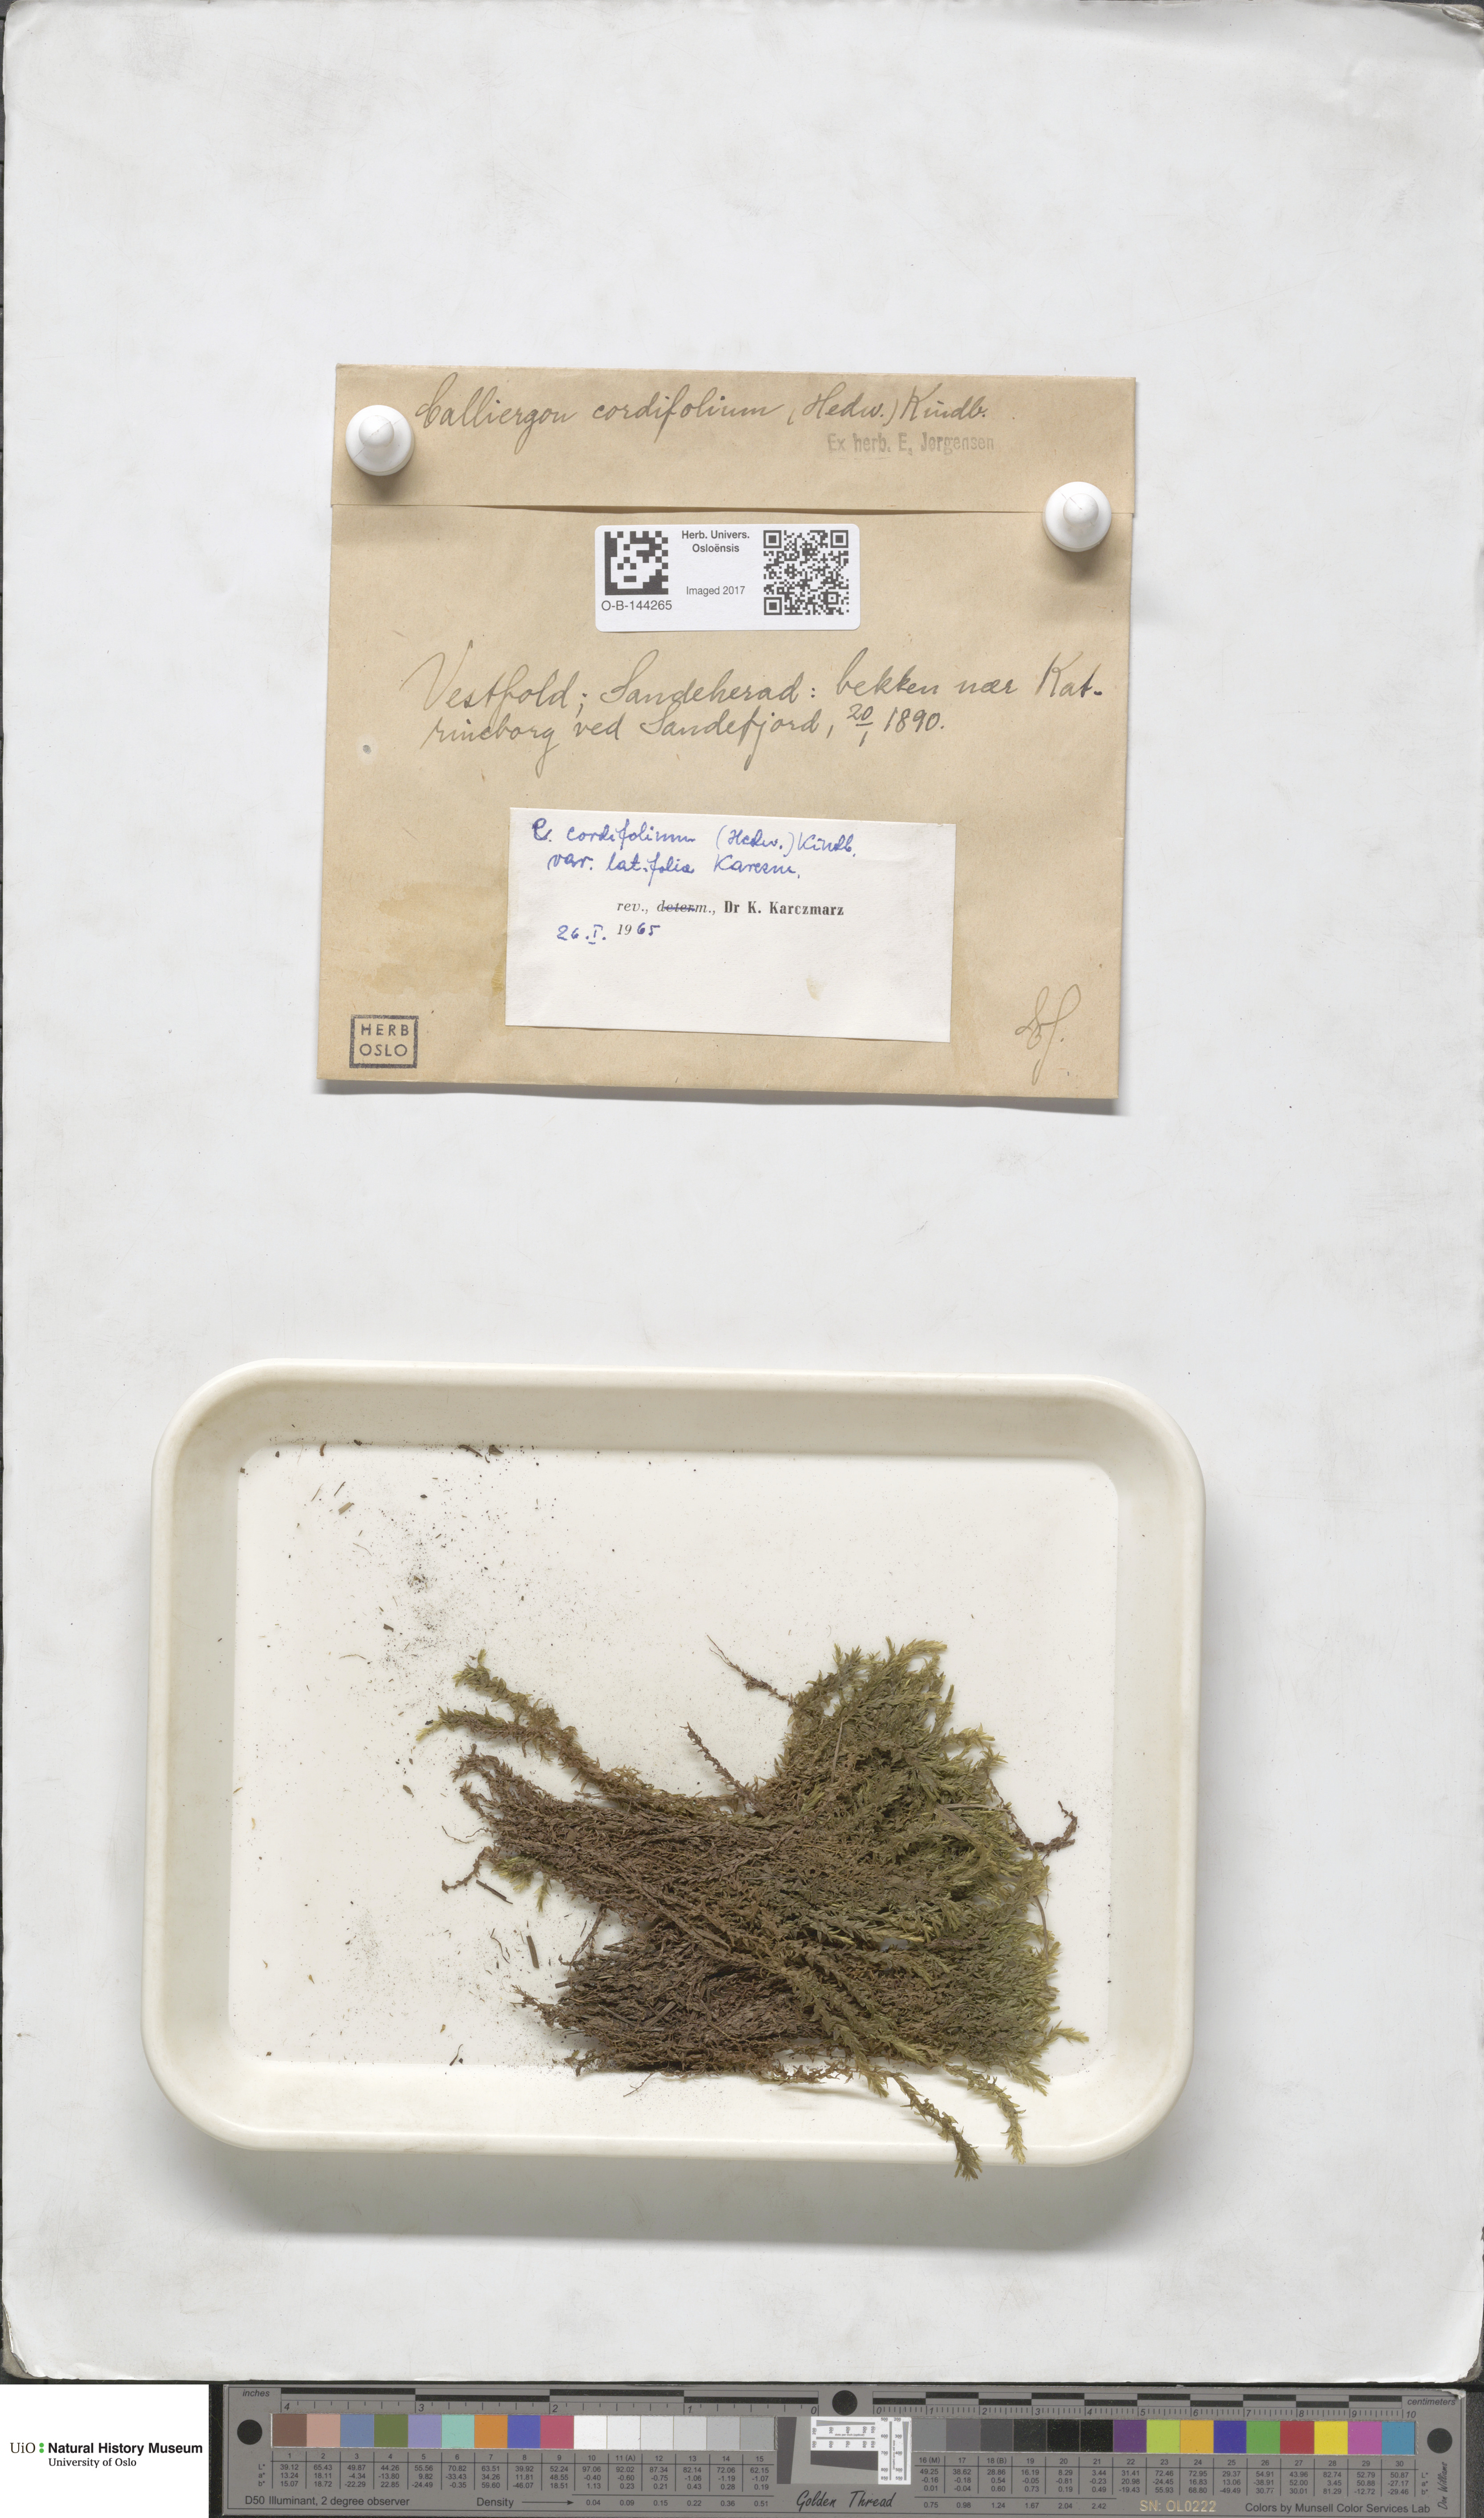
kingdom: Plantae
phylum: Bryophyta
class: Bryopsida
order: Hypnales
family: Calliergonaceae
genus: Calliergon
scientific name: Calliergon cordifolium
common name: Heart-leaved spear moss
